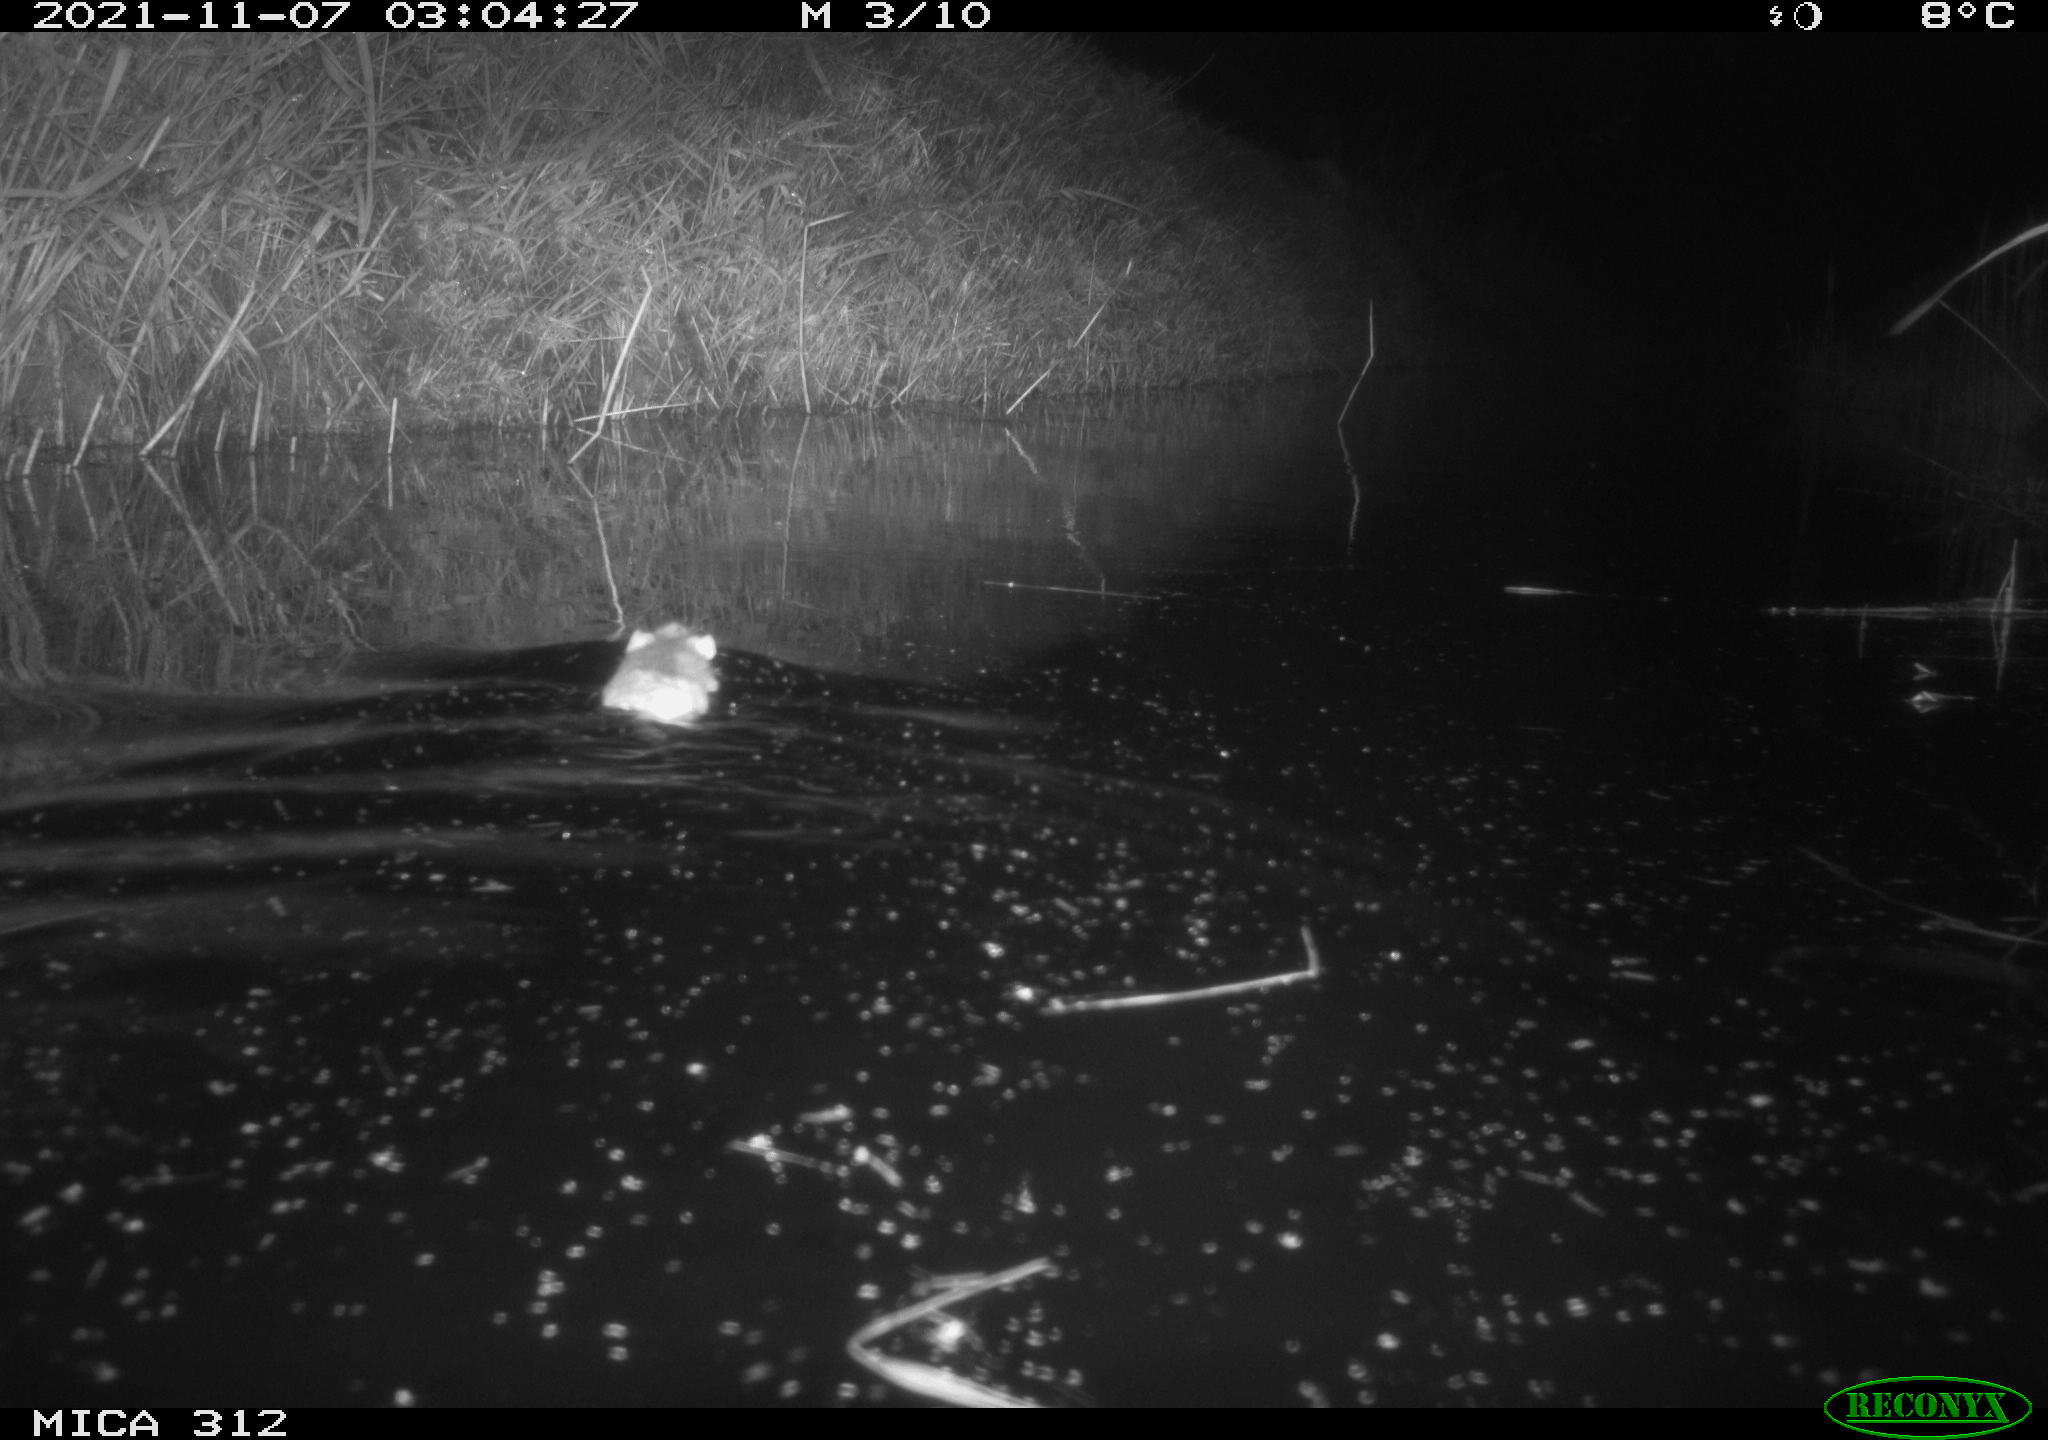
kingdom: Animalia
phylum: Chordata
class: Mammalia
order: Rodentia
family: Muridae
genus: Rattus
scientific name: Rattus norvegicus
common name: Brown rat
